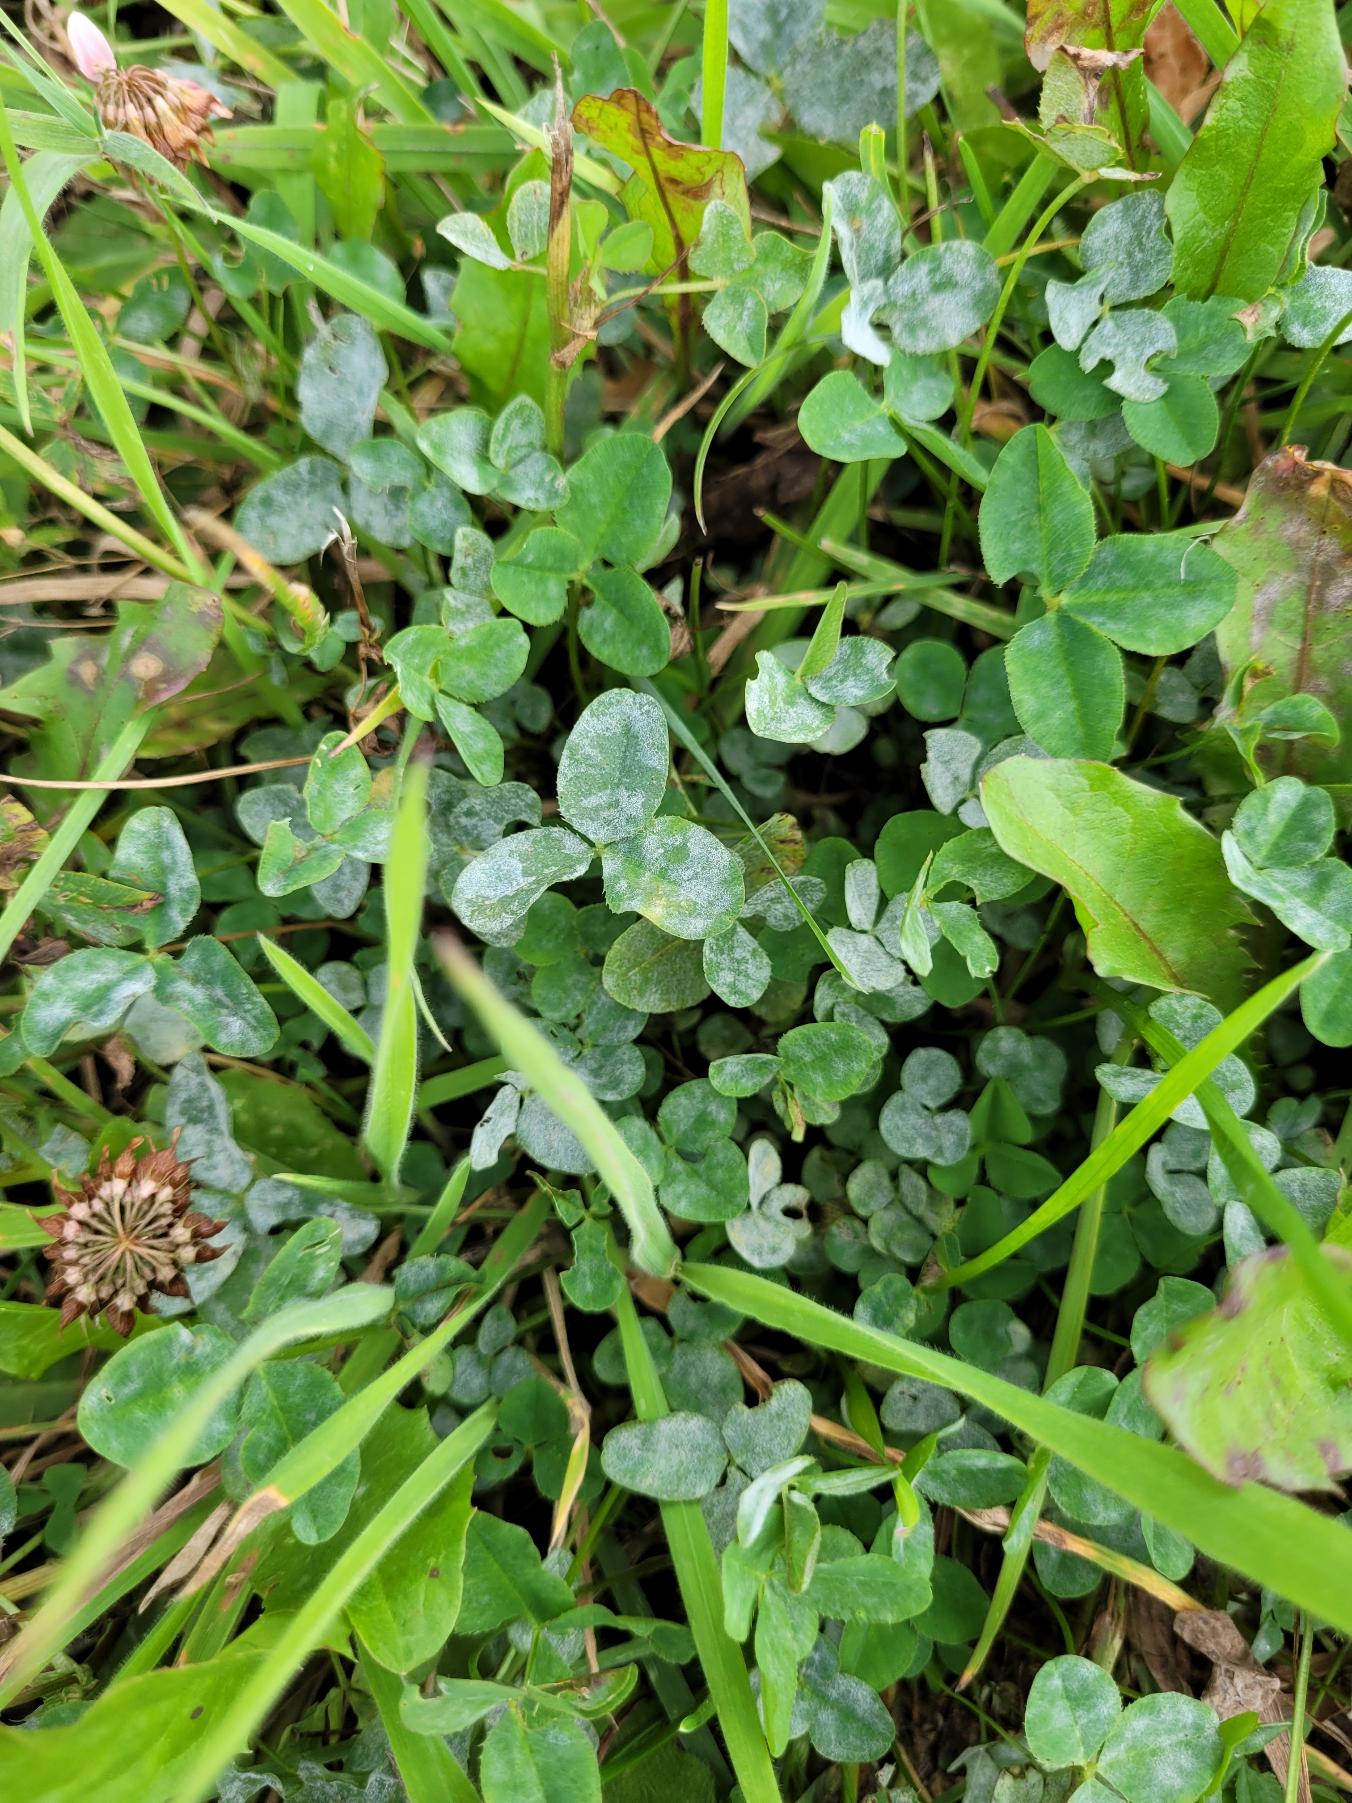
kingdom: Plantae
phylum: Tracheophyta
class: Magnoliopsida
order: Fabales
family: Fabaceae
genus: Trifolium
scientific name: Trifolium hybridum
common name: Alsike-kløver
